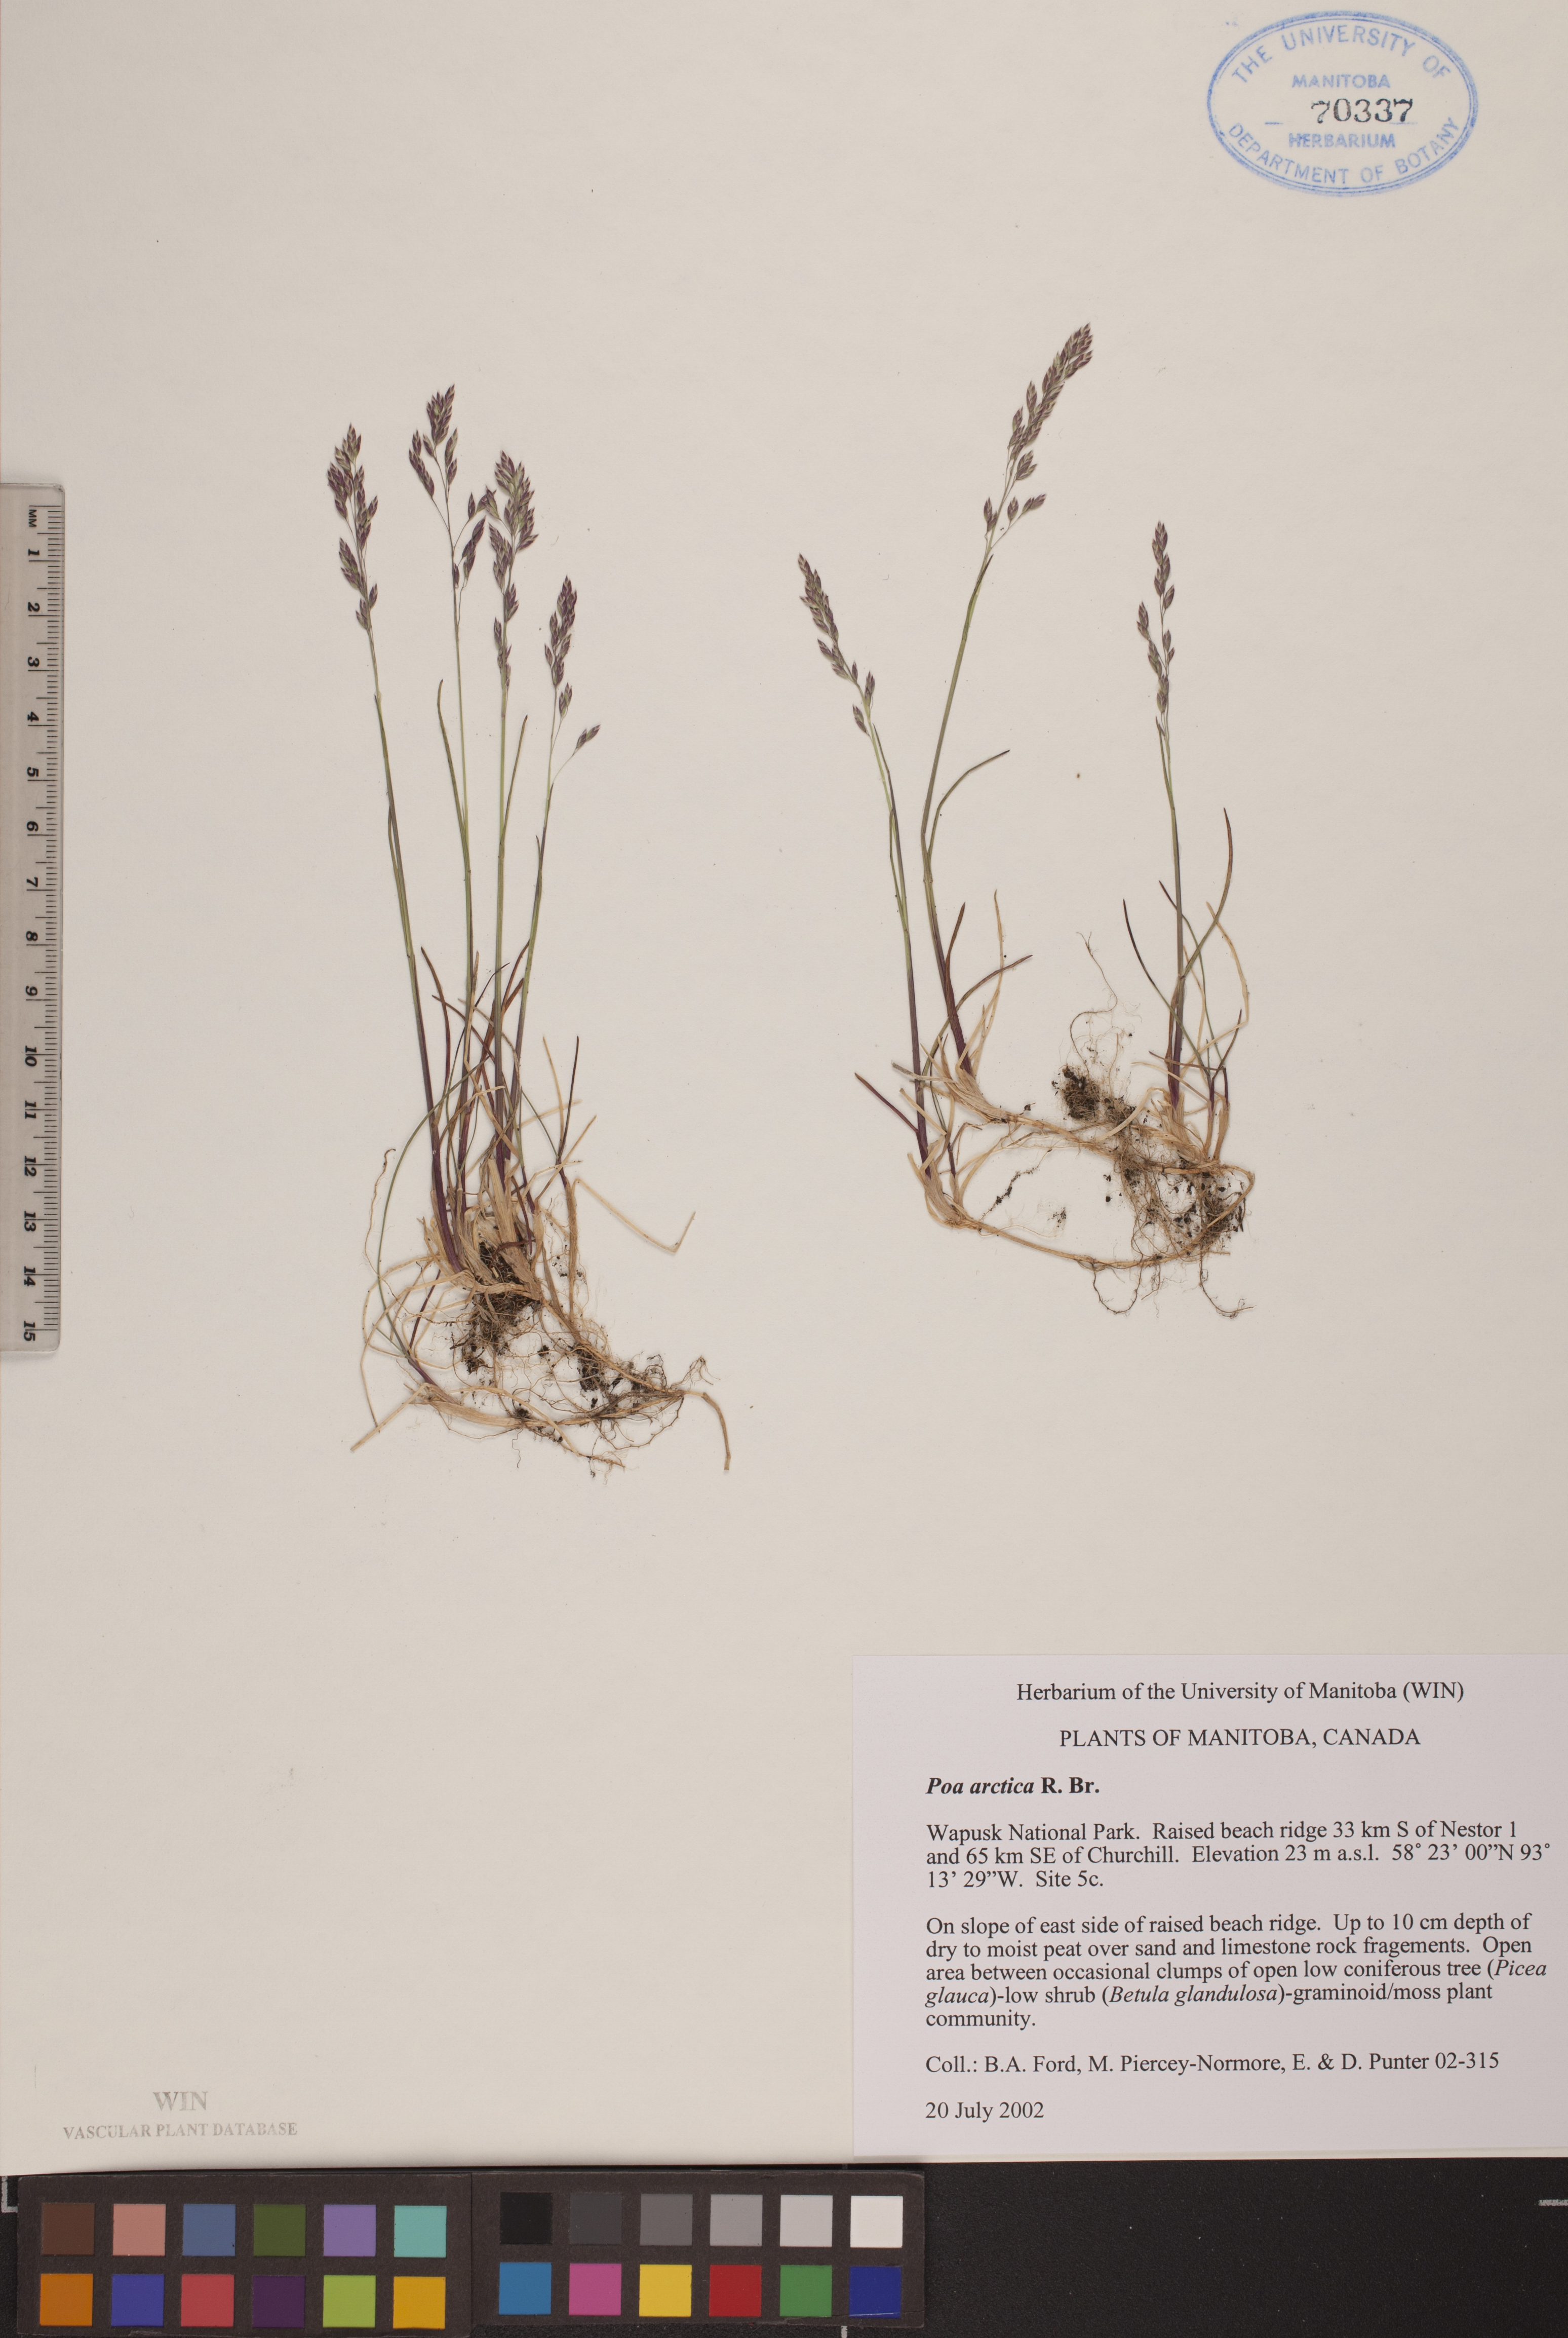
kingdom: Plantae
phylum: Tracheophyta
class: Liliopsida
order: Poales
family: Poaceae
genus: Poa
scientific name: Poa arctica
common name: Arctic bluegrass
